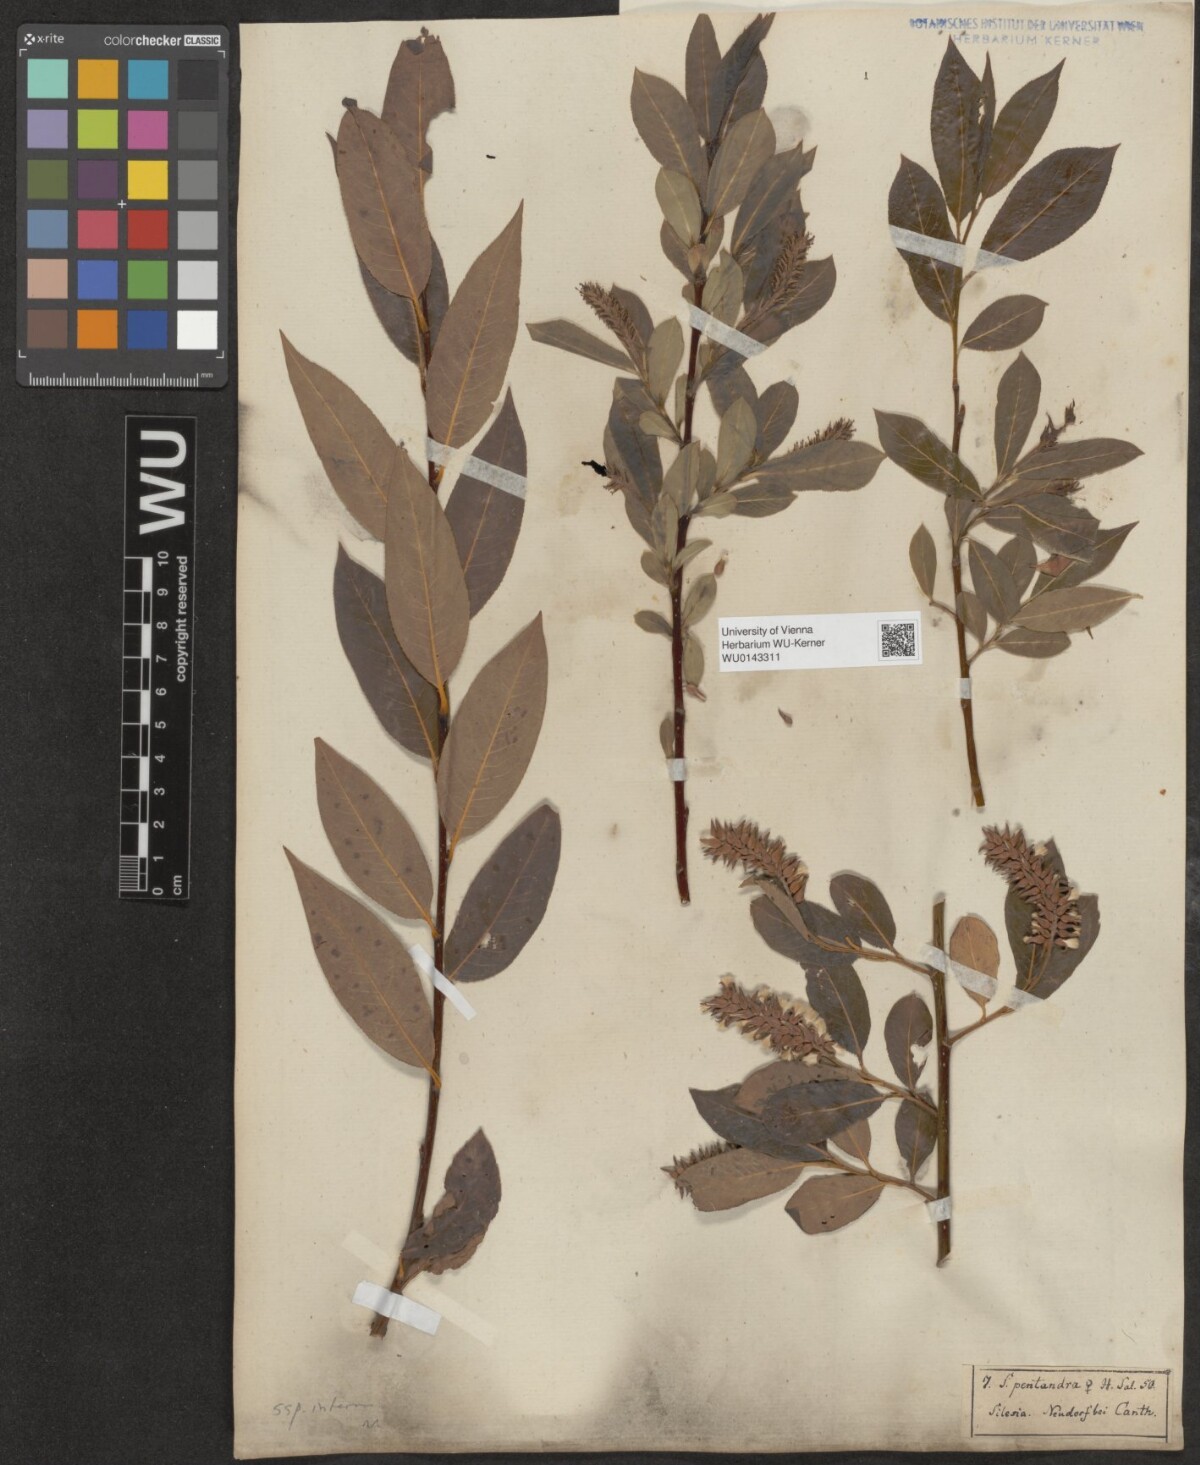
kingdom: Plantae
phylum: Tracheophyta
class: Magnoliopsida
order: Malpighiales
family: Salicaceae
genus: Salix
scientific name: Salix pentandra
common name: Bay willow
